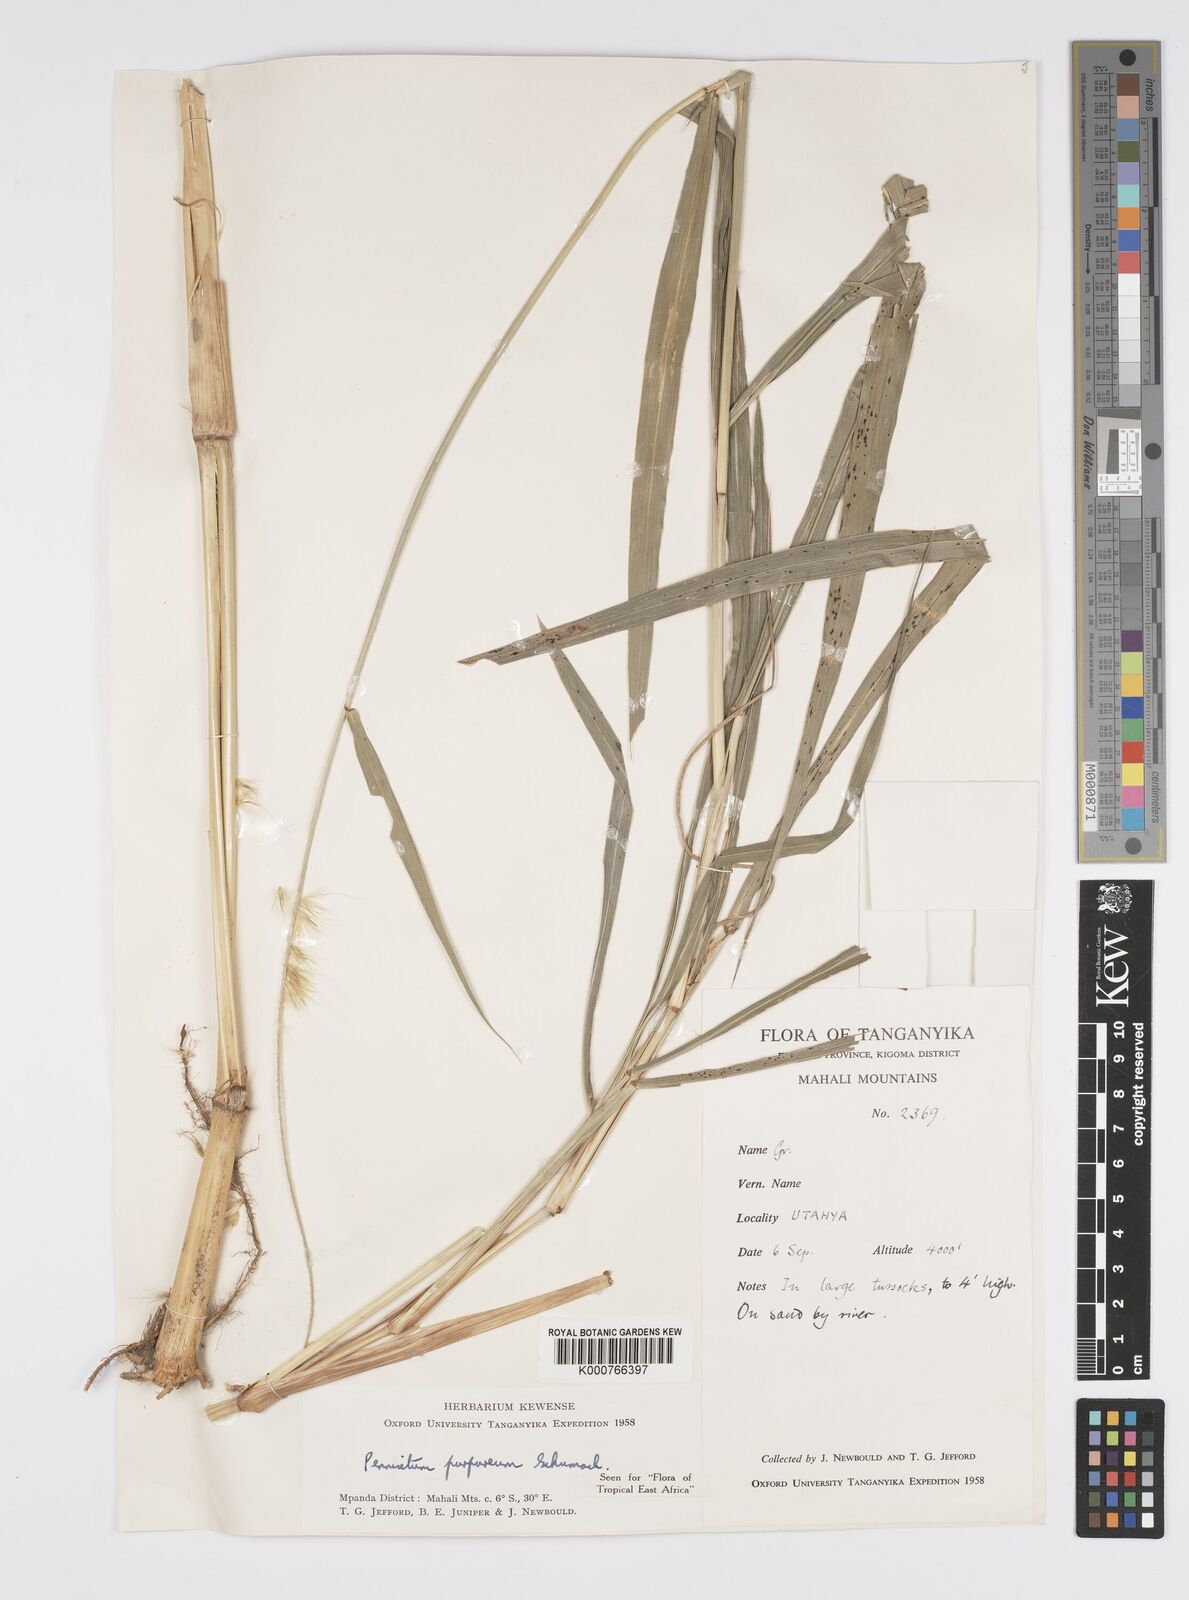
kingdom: Plantae
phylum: Tracheophyta
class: Liliopsida
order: Poales
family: Poaceae
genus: Cenchrus
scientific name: Cenchrus purpureus
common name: Elephant grass
